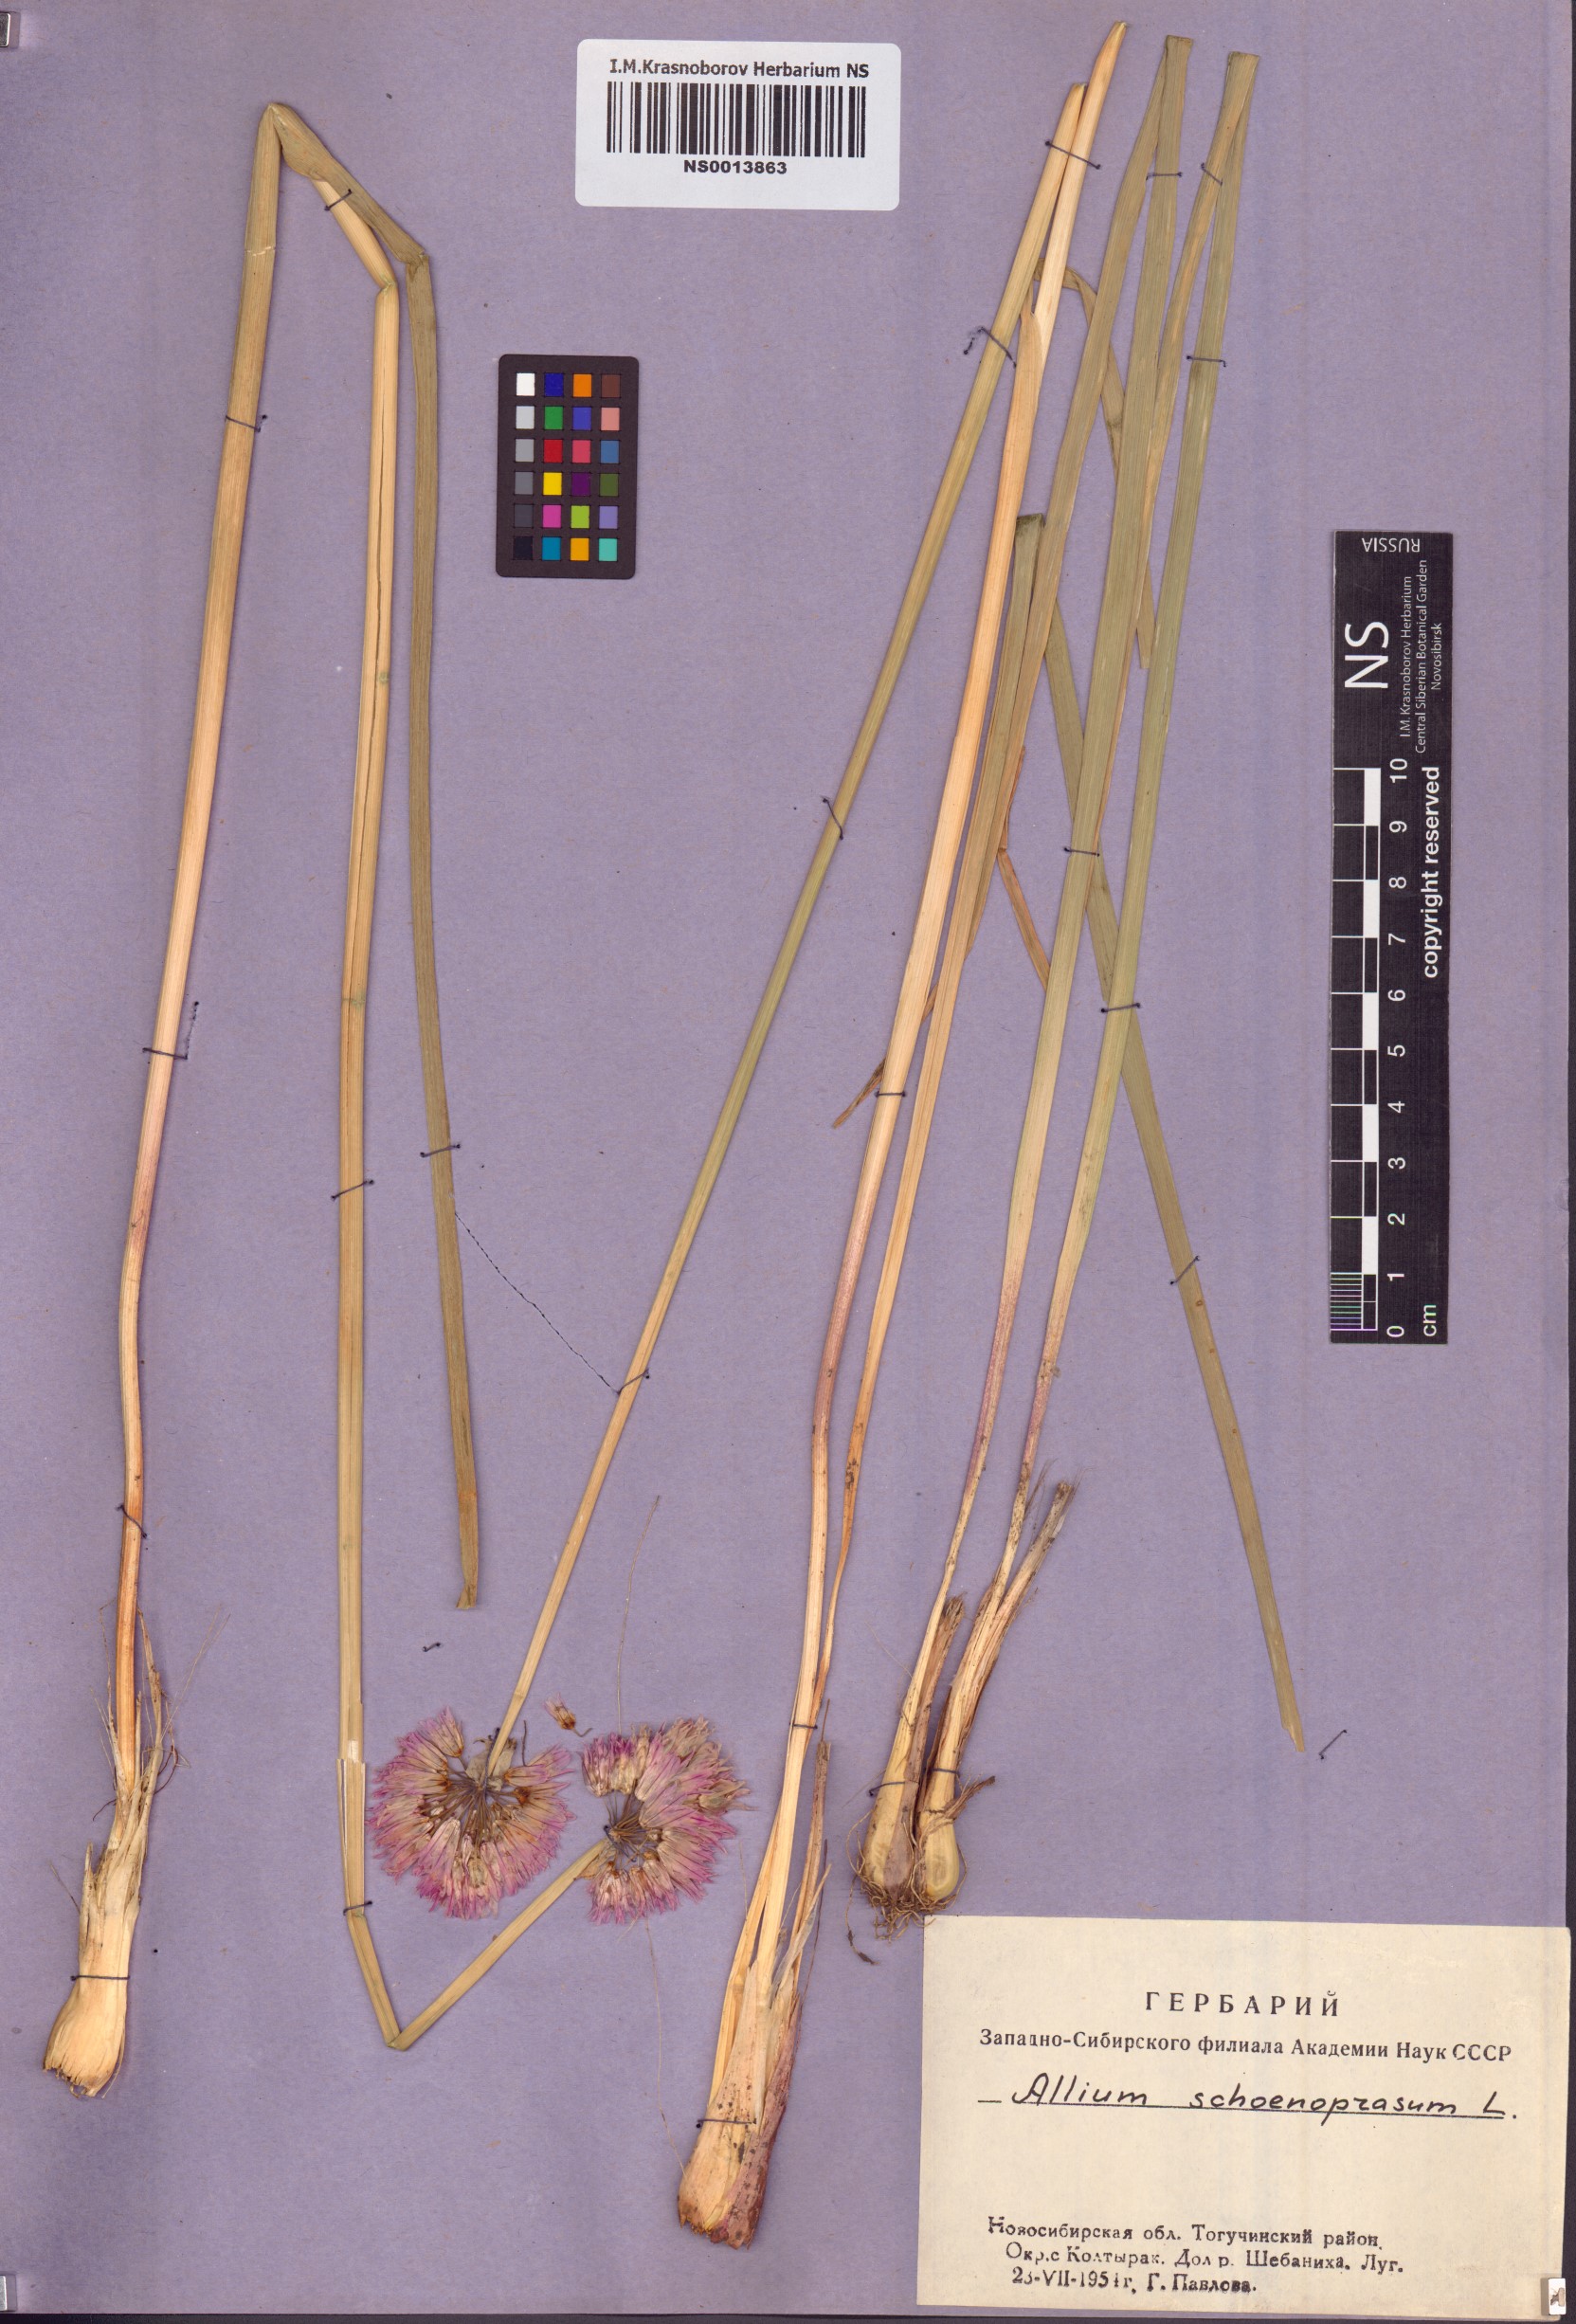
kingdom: Plantae
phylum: Tracheophyta
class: Liliopsida
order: Asparagales
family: Amaryllidaceae
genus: Allium
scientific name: Allium schoenoprasum
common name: Chives
